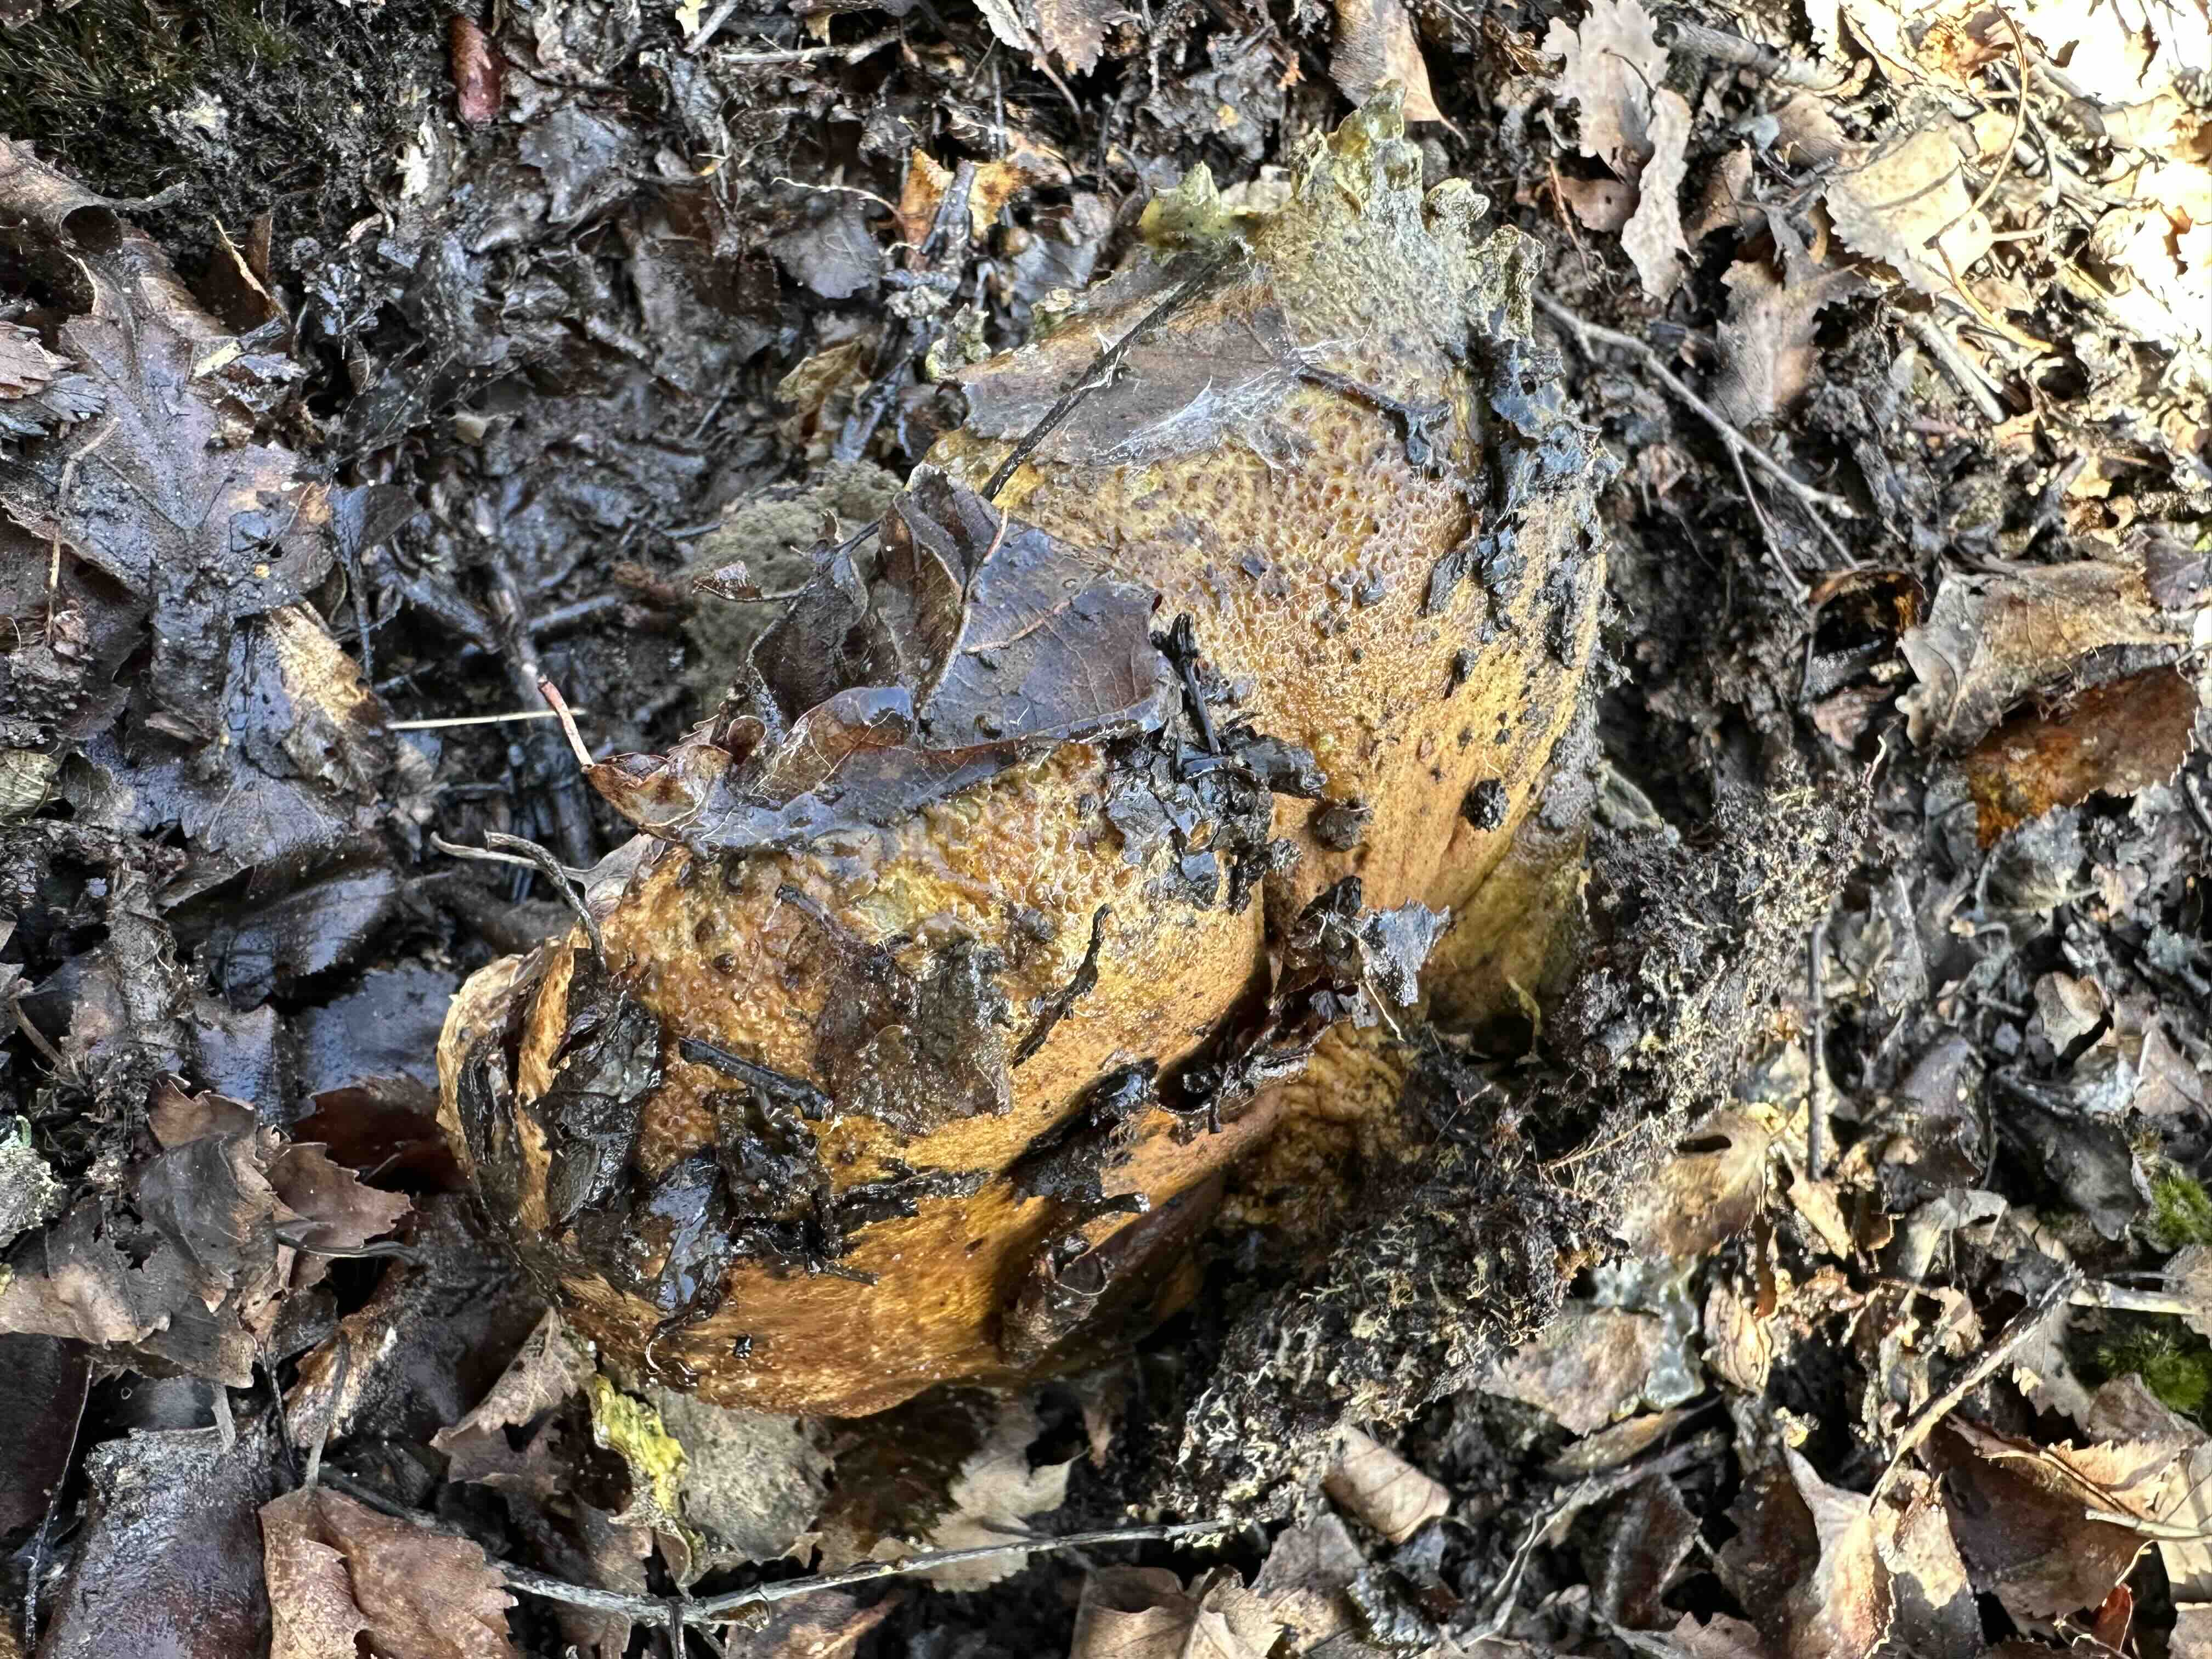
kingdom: Fungi
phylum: Basidiomycota
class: Agaricomycetes
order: Boletales
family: Sclerodermataceae
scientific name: Sclerodermataceae
